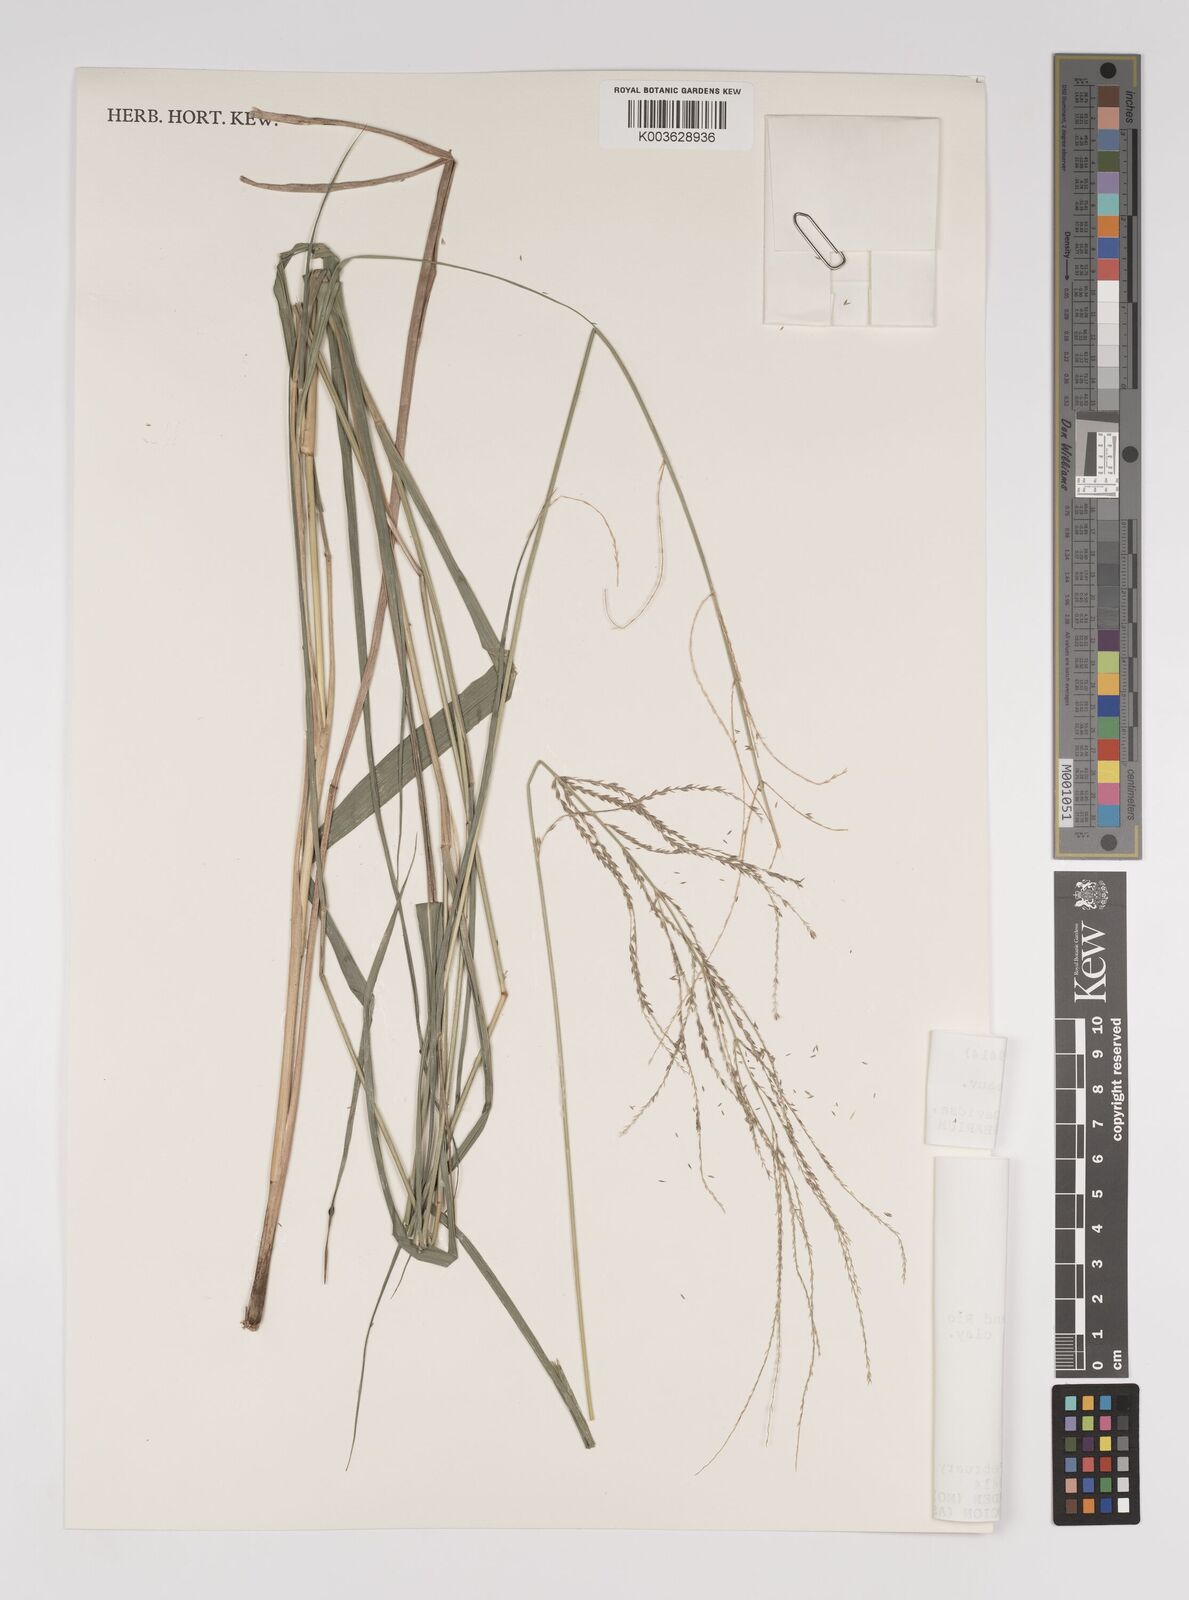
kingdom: Plantae
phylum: Tracheophyta
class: Liliopsida
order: Poales
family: Poaceae
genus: Leptochloa
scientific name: Leptochloa virgata
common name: Tropical sprangletop
